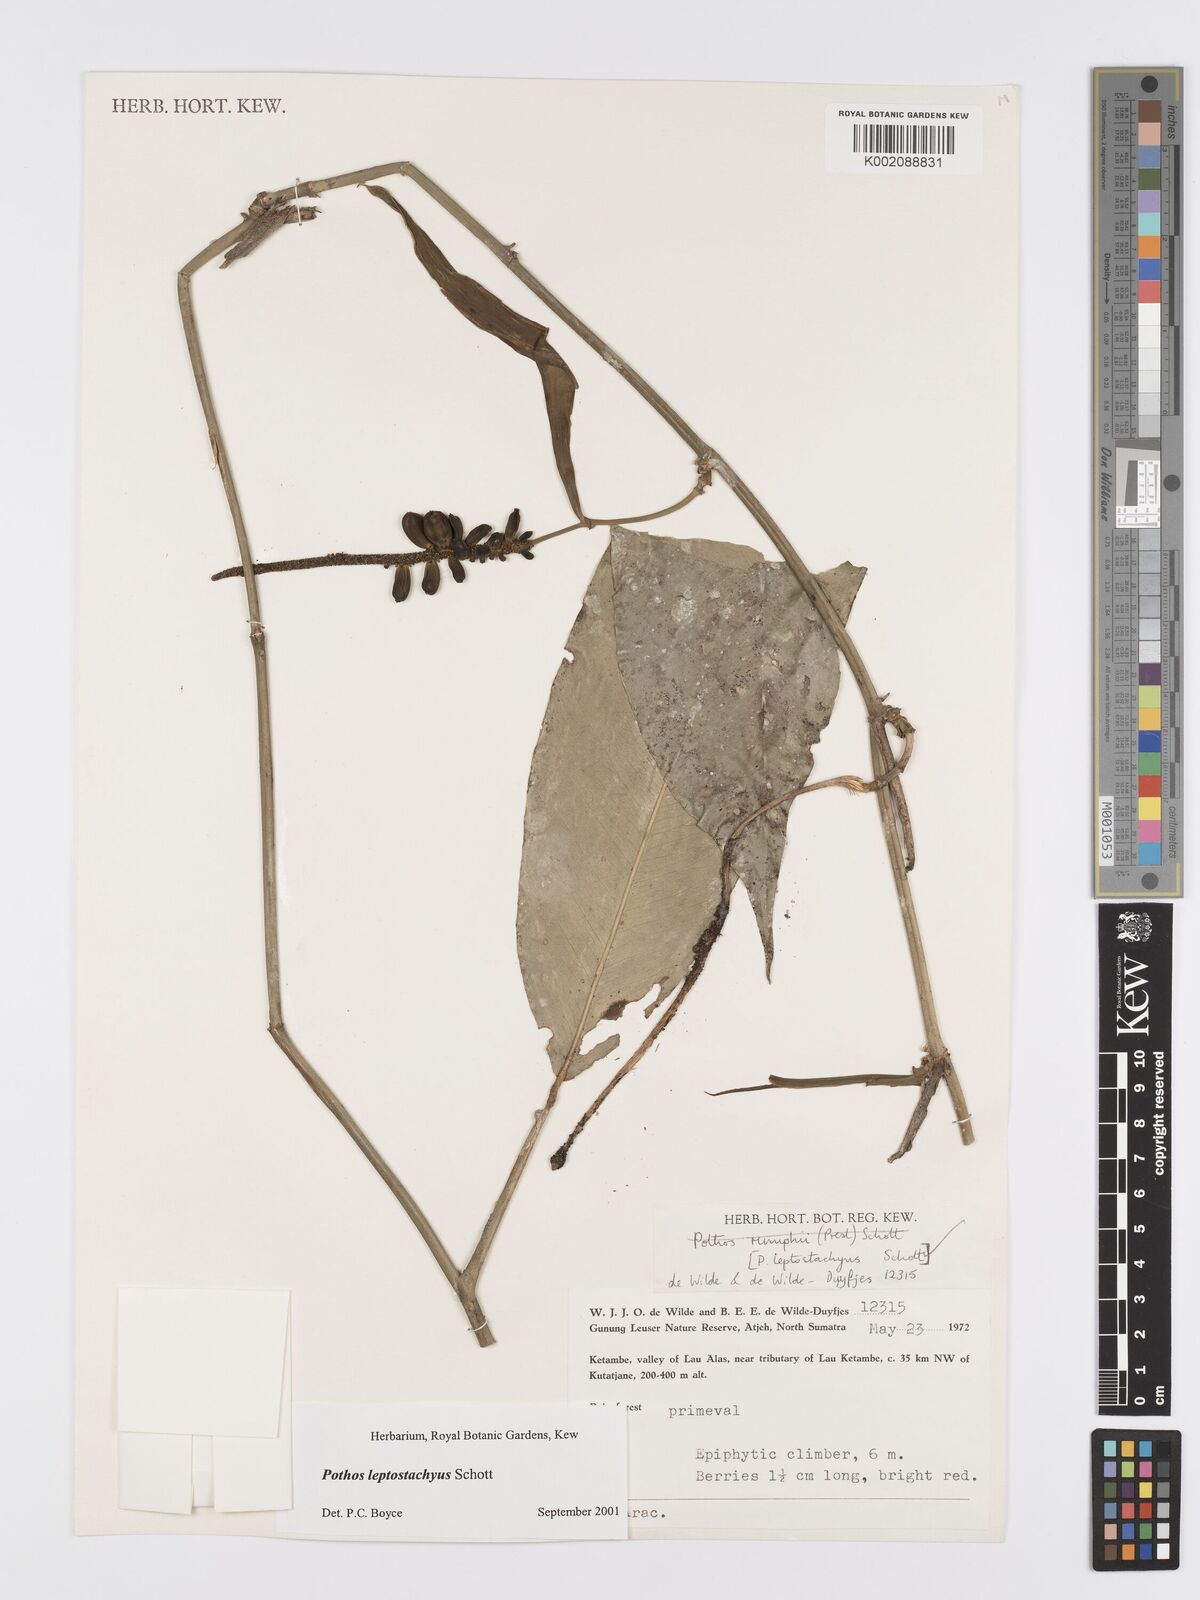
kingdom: Plantae
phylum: Tracheophyta
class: Liliopsida
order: Alismatales
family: Araceae
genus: Pothos
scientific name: Pothos leptostachyus
